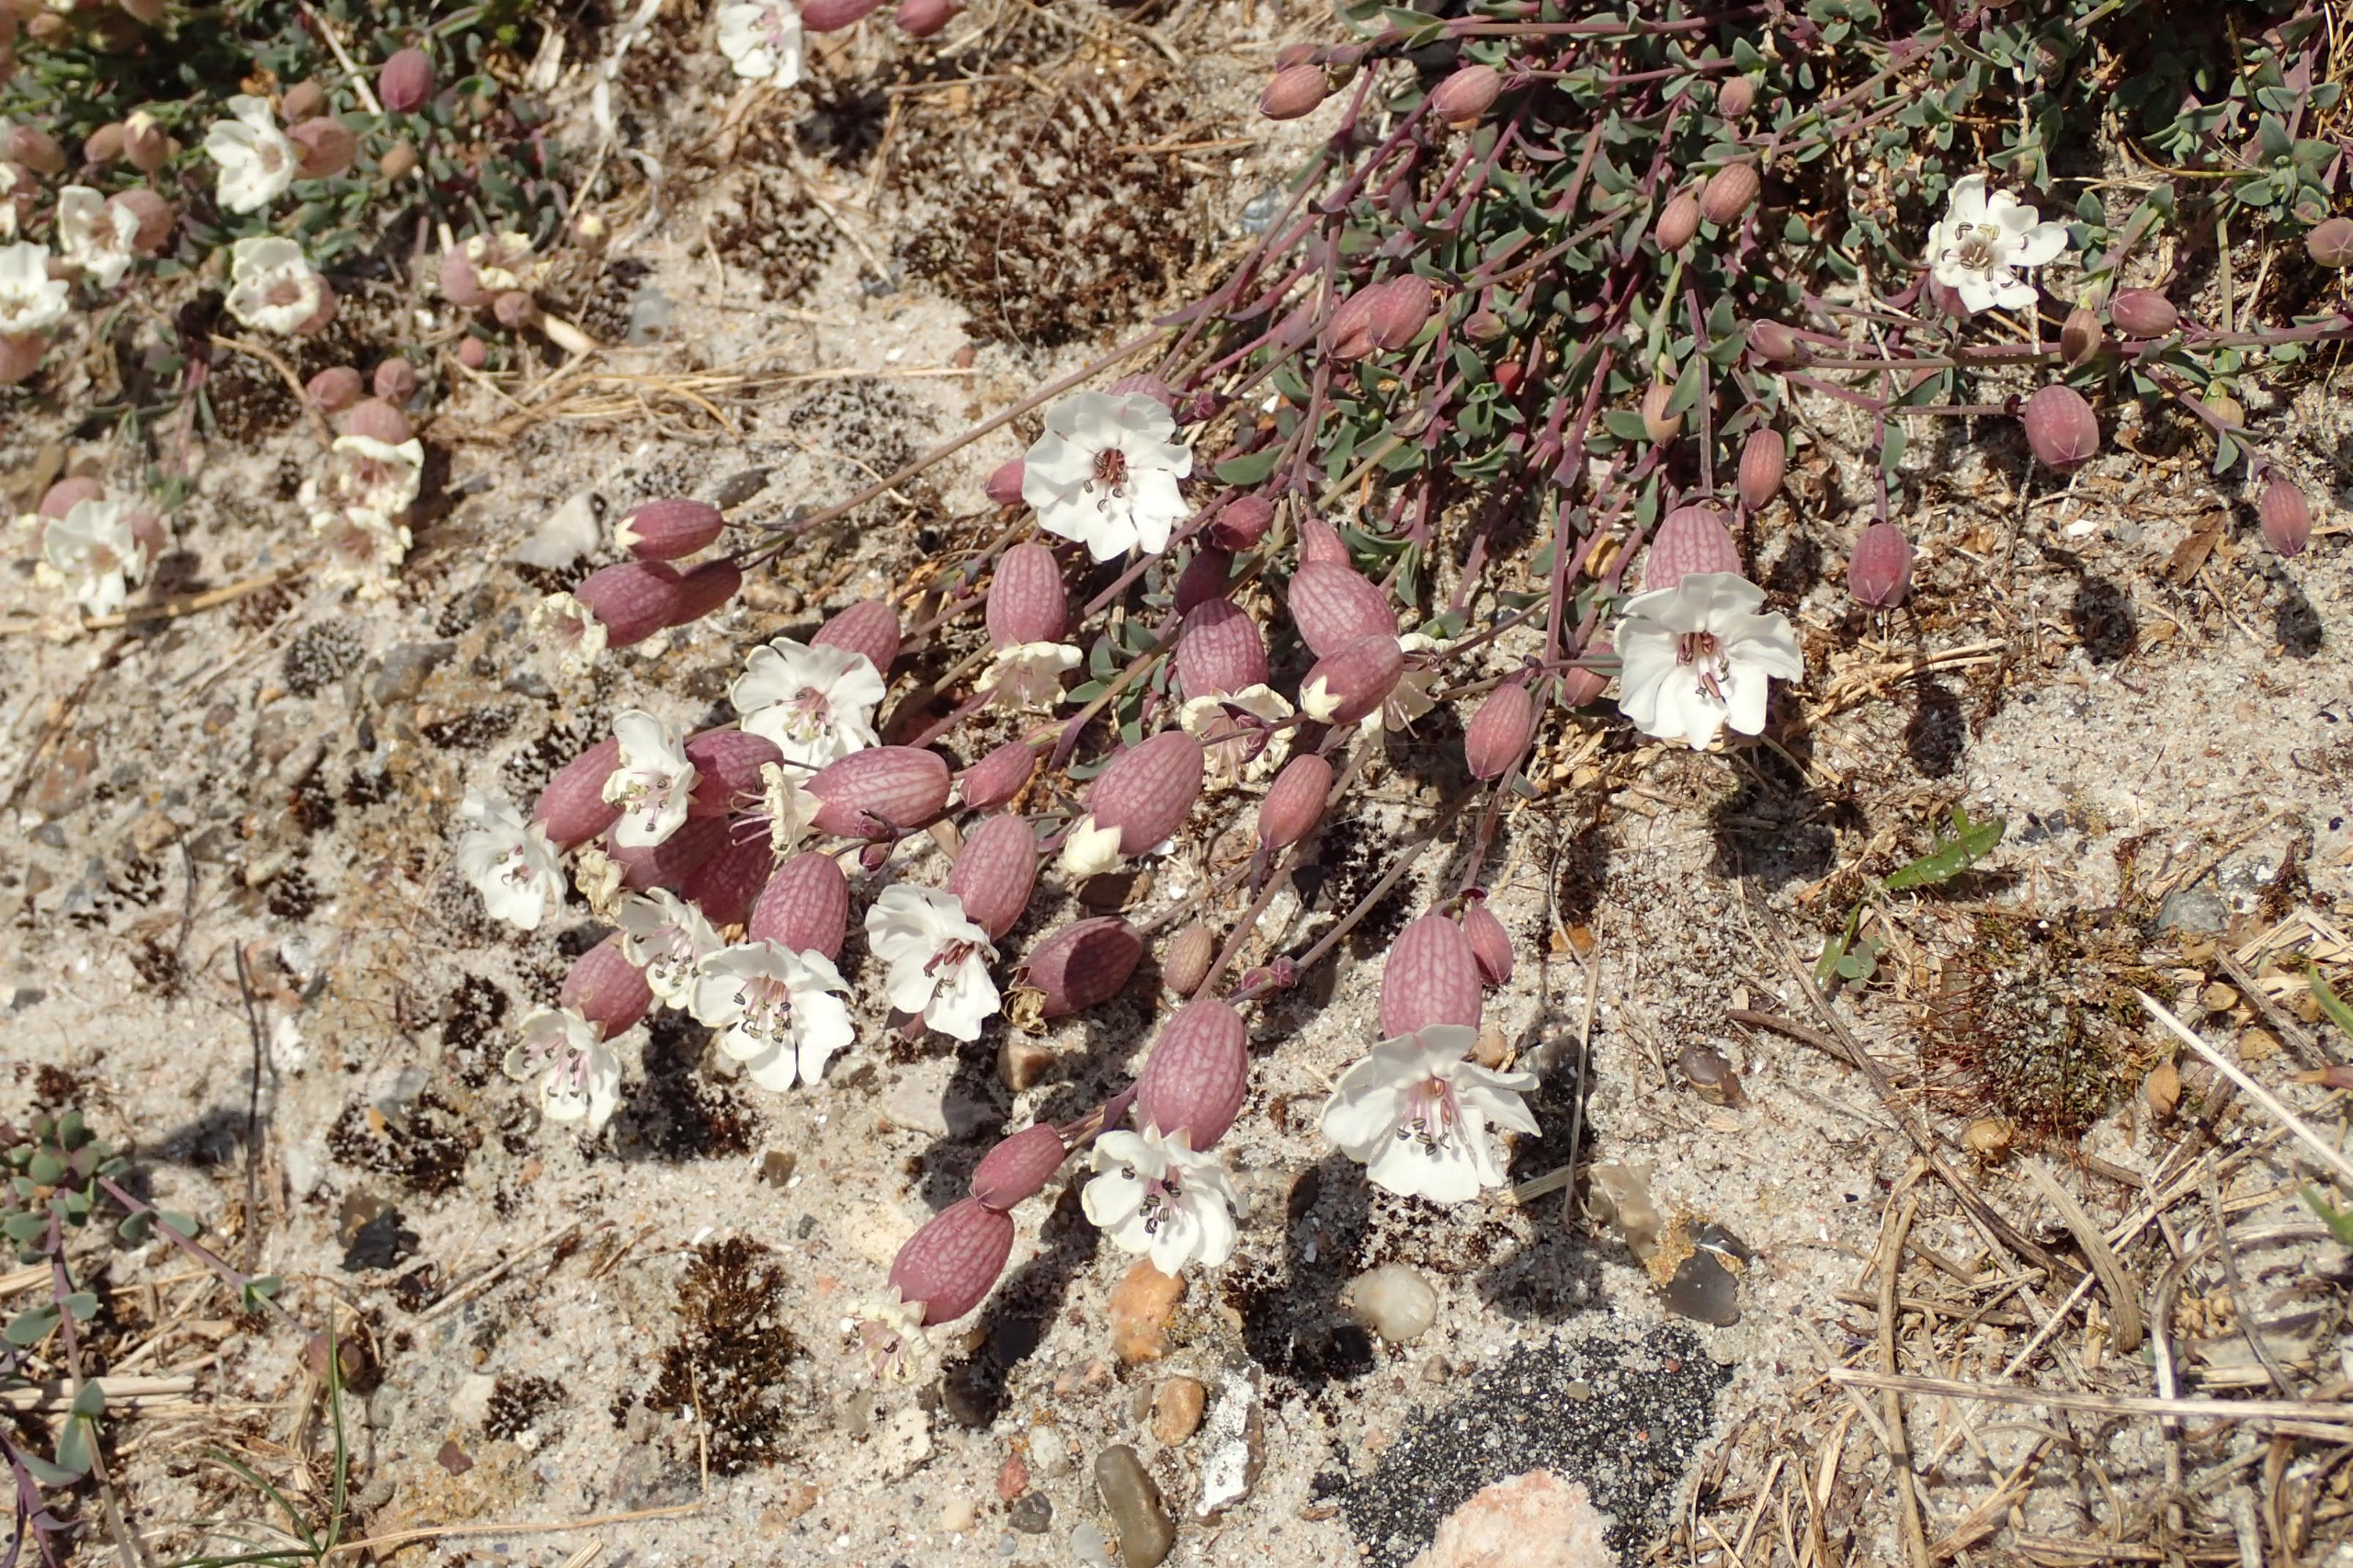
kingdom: Plantae
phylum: Tracheophyta
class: Magnoliopsida
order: Caryophyllales
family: Caryophyllaceae
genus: Silene
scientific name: Silene uniflora
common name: Strand-limurt
